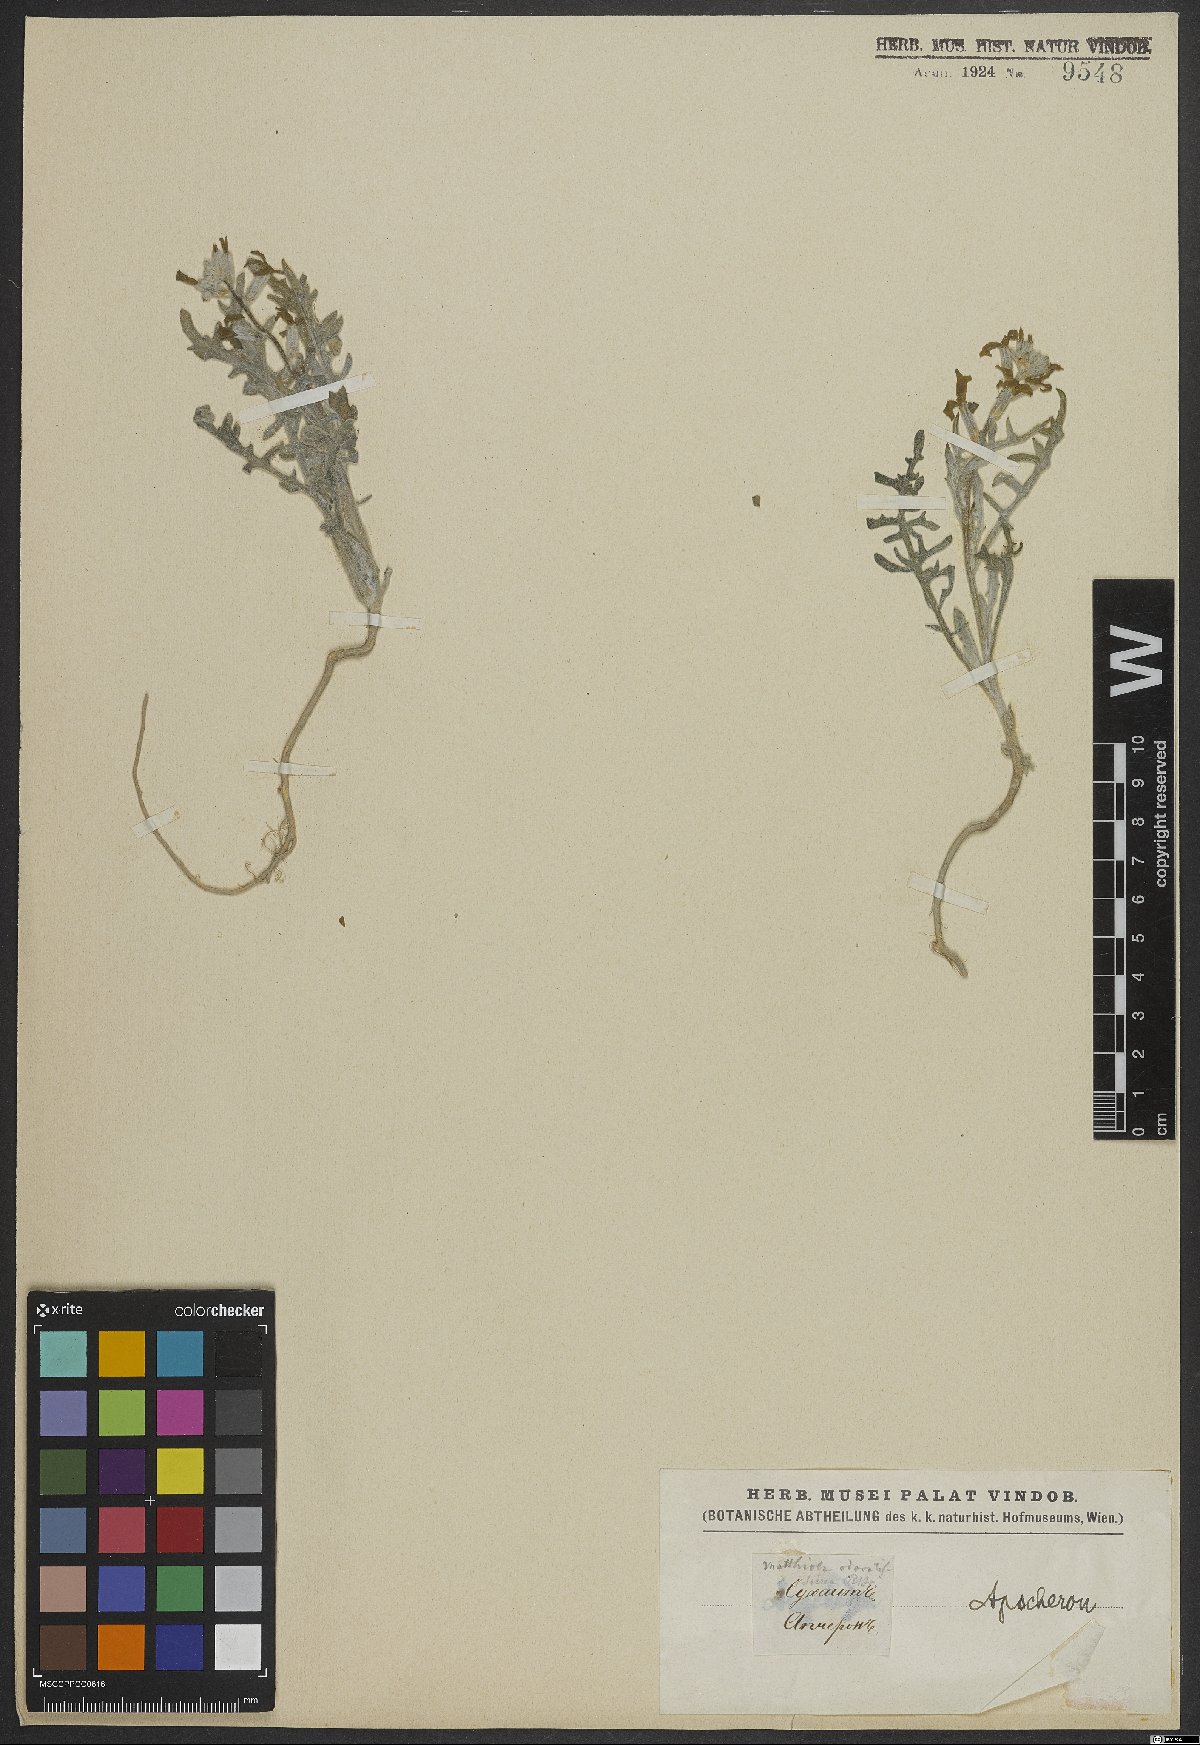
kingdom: Plantae
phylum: Tracheophyta
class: Magnoliopsida
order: Brassicales
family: Brassicaceae
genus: Matthiola
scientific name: Matthiola odoratissima
